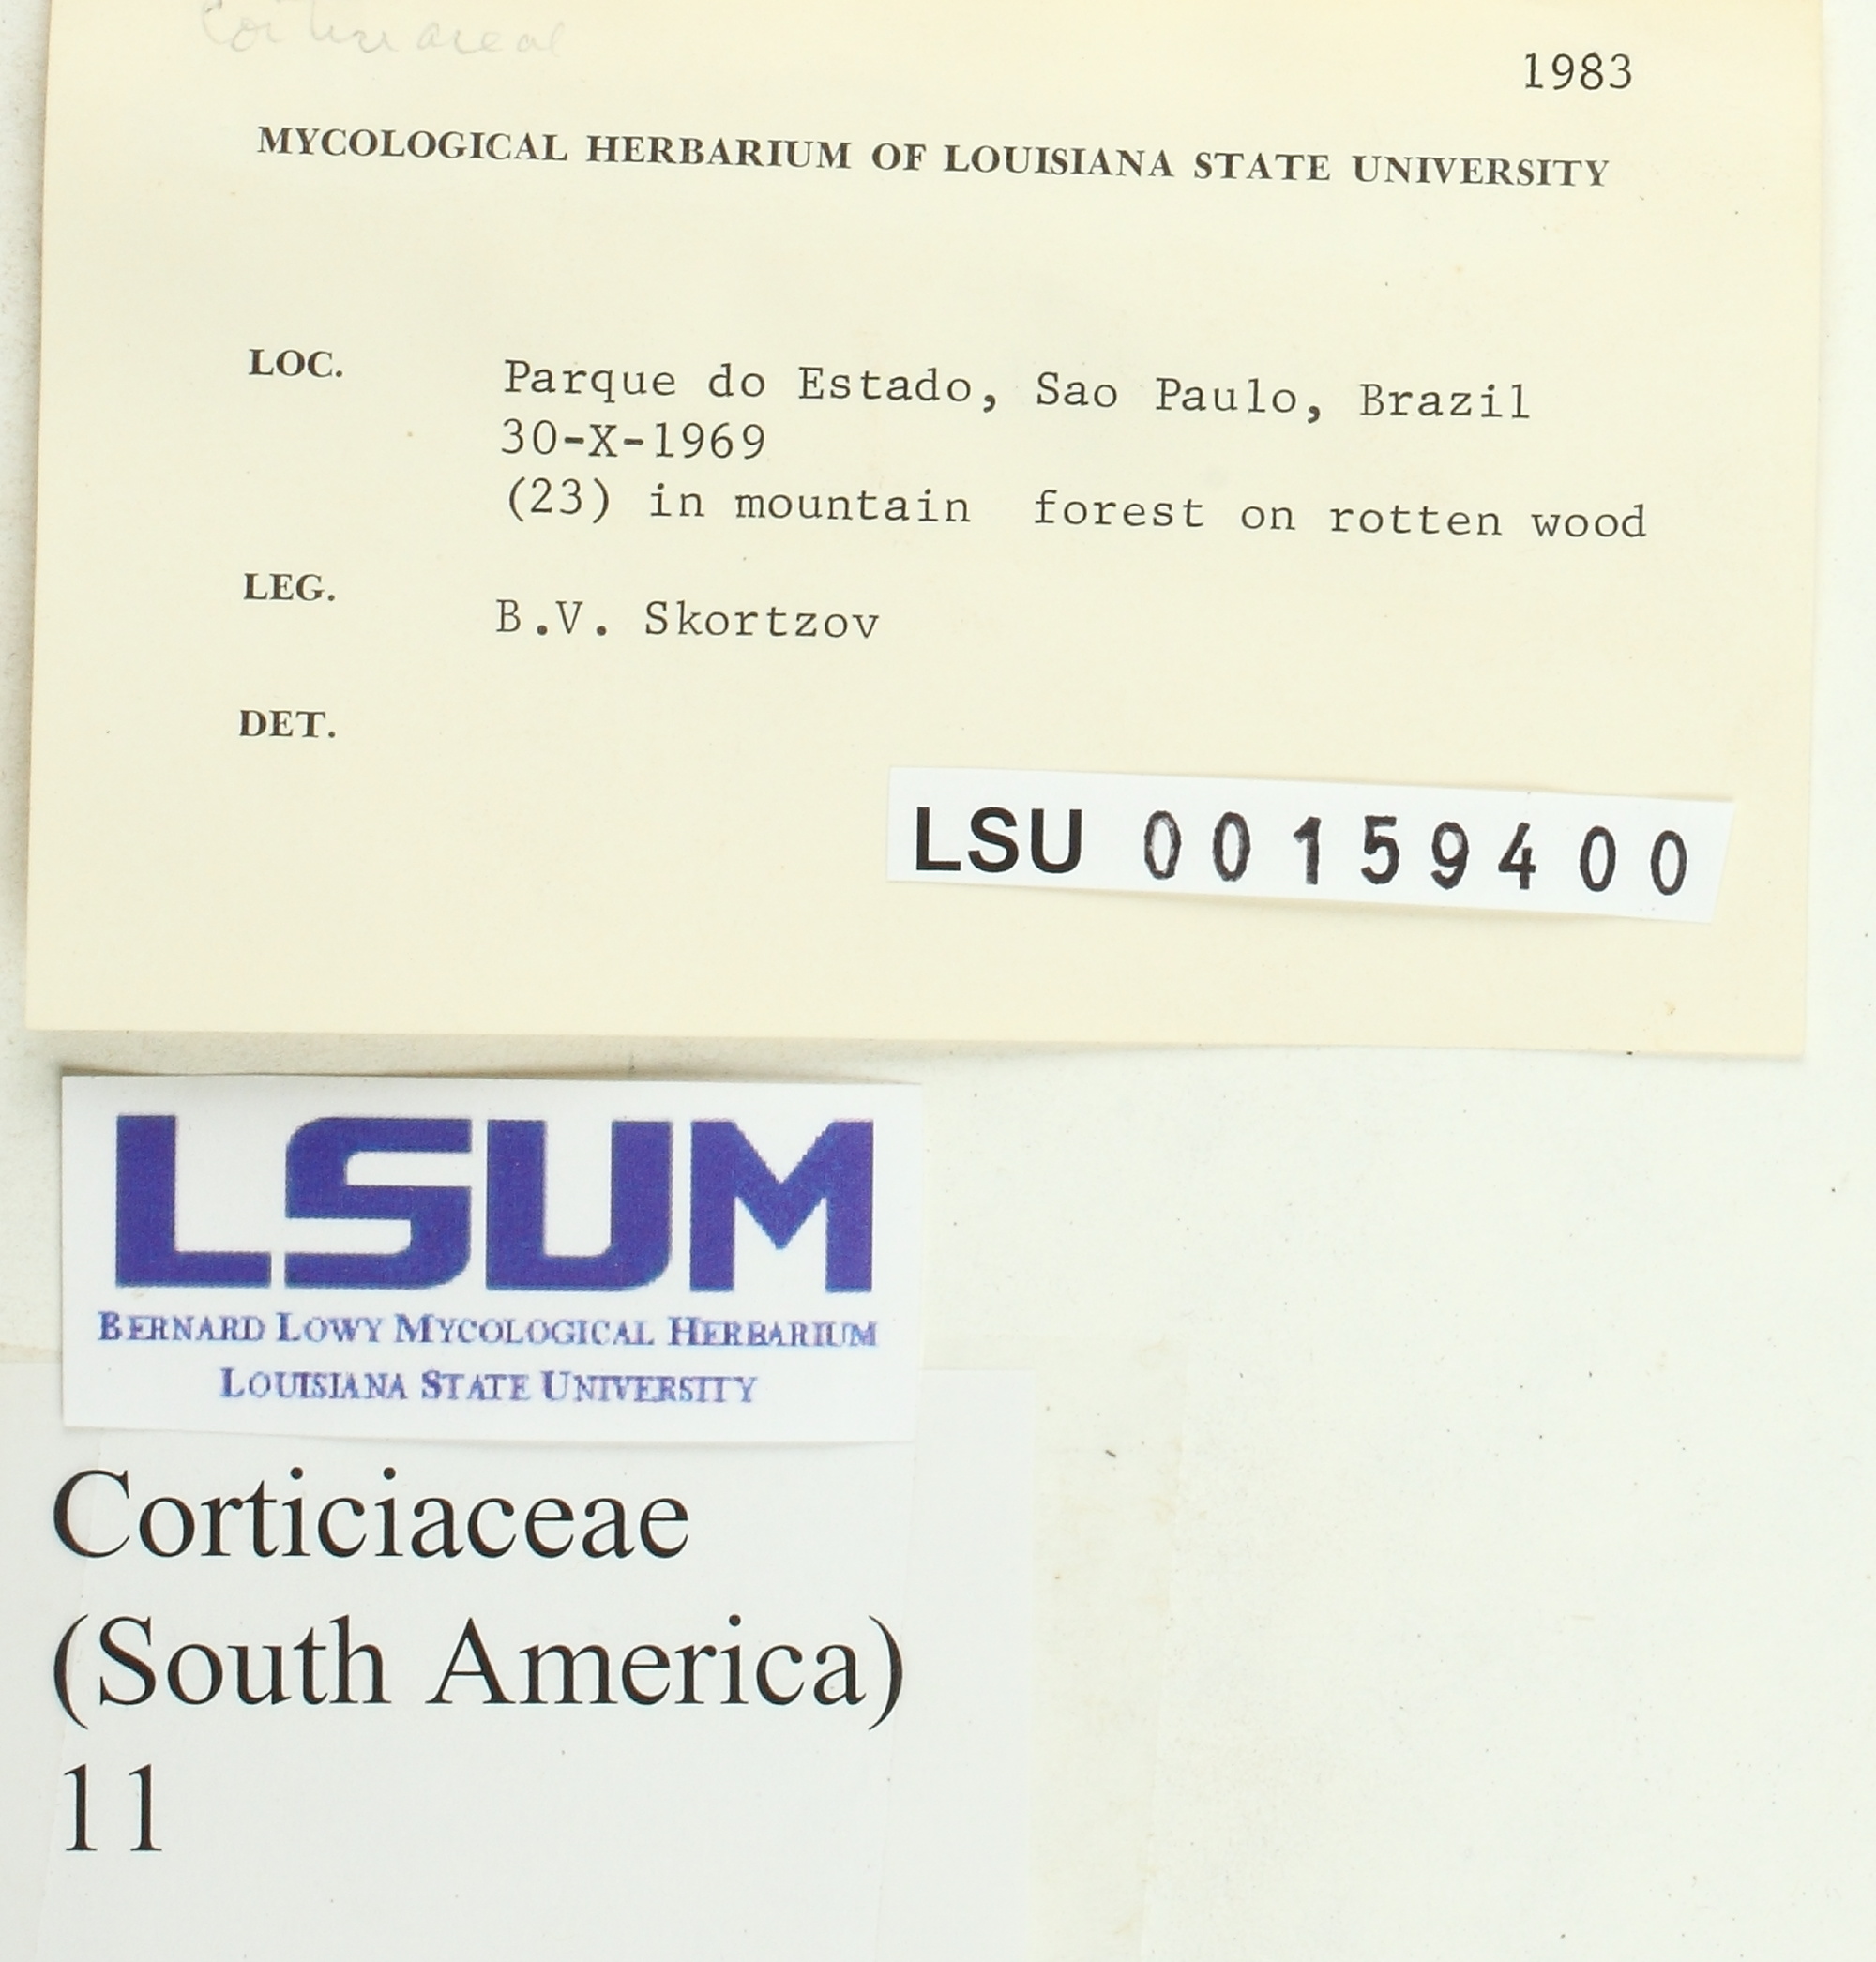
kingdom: Fungi
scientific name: Fungi
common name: Fungi
